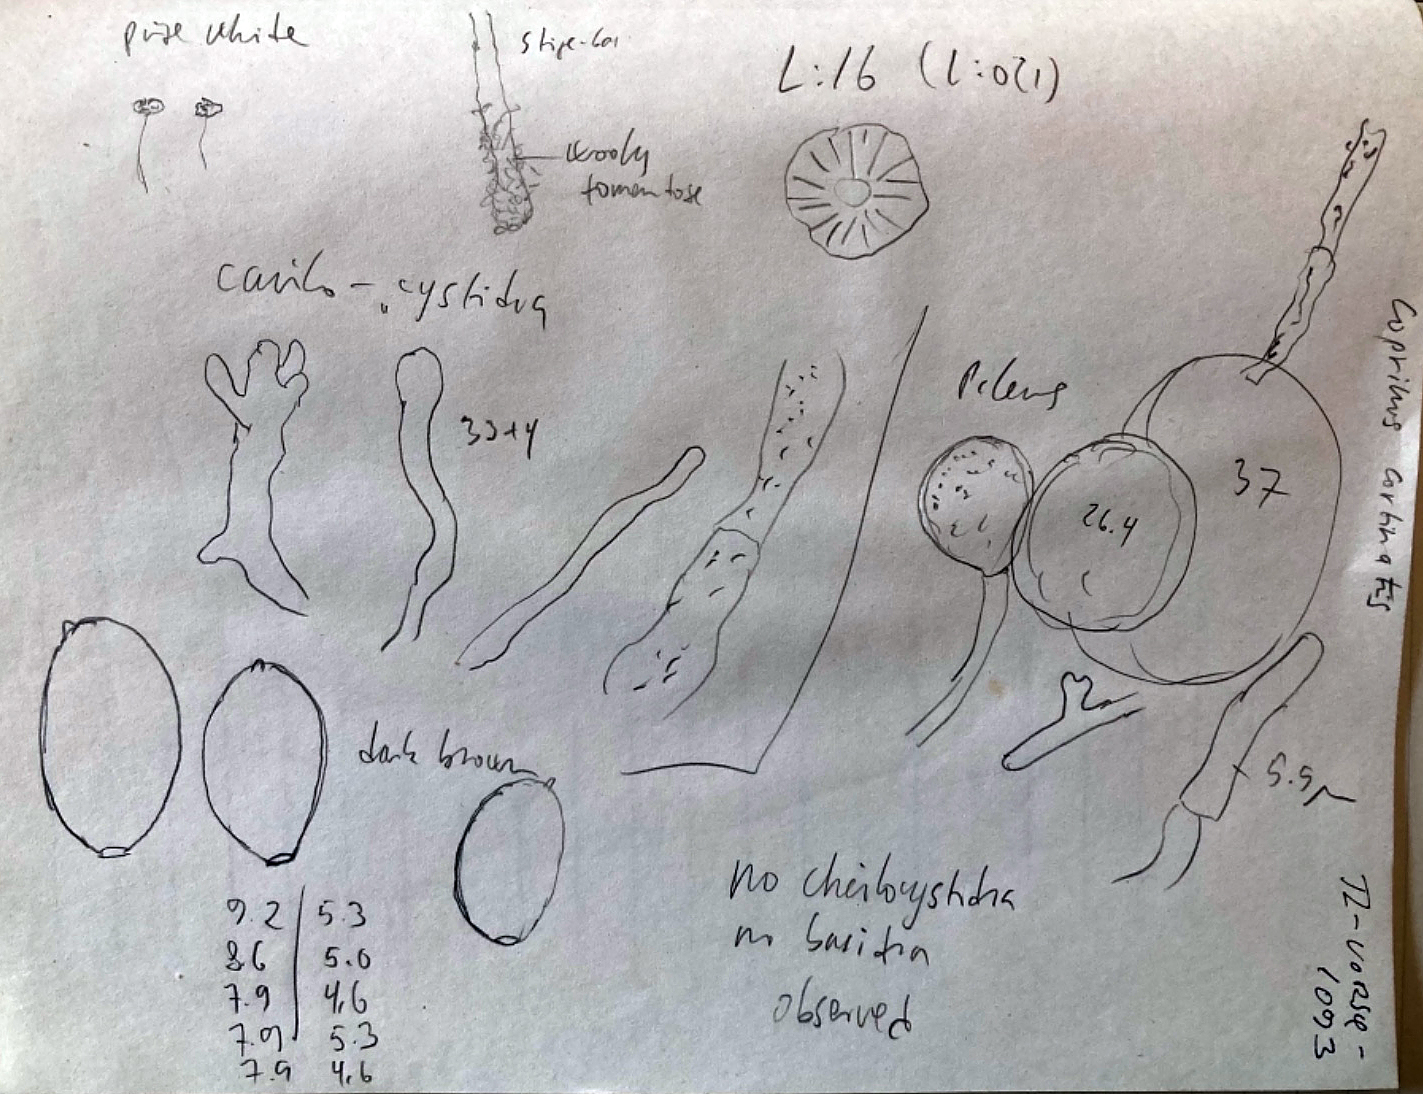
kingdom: Fungi
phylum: Basidiomycota
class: Agaricomycetes
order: Agaricales
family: Psathyrellaceae
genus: Coprinopsis
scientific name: Coprinopsis cortinata
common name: slør-blækhat
